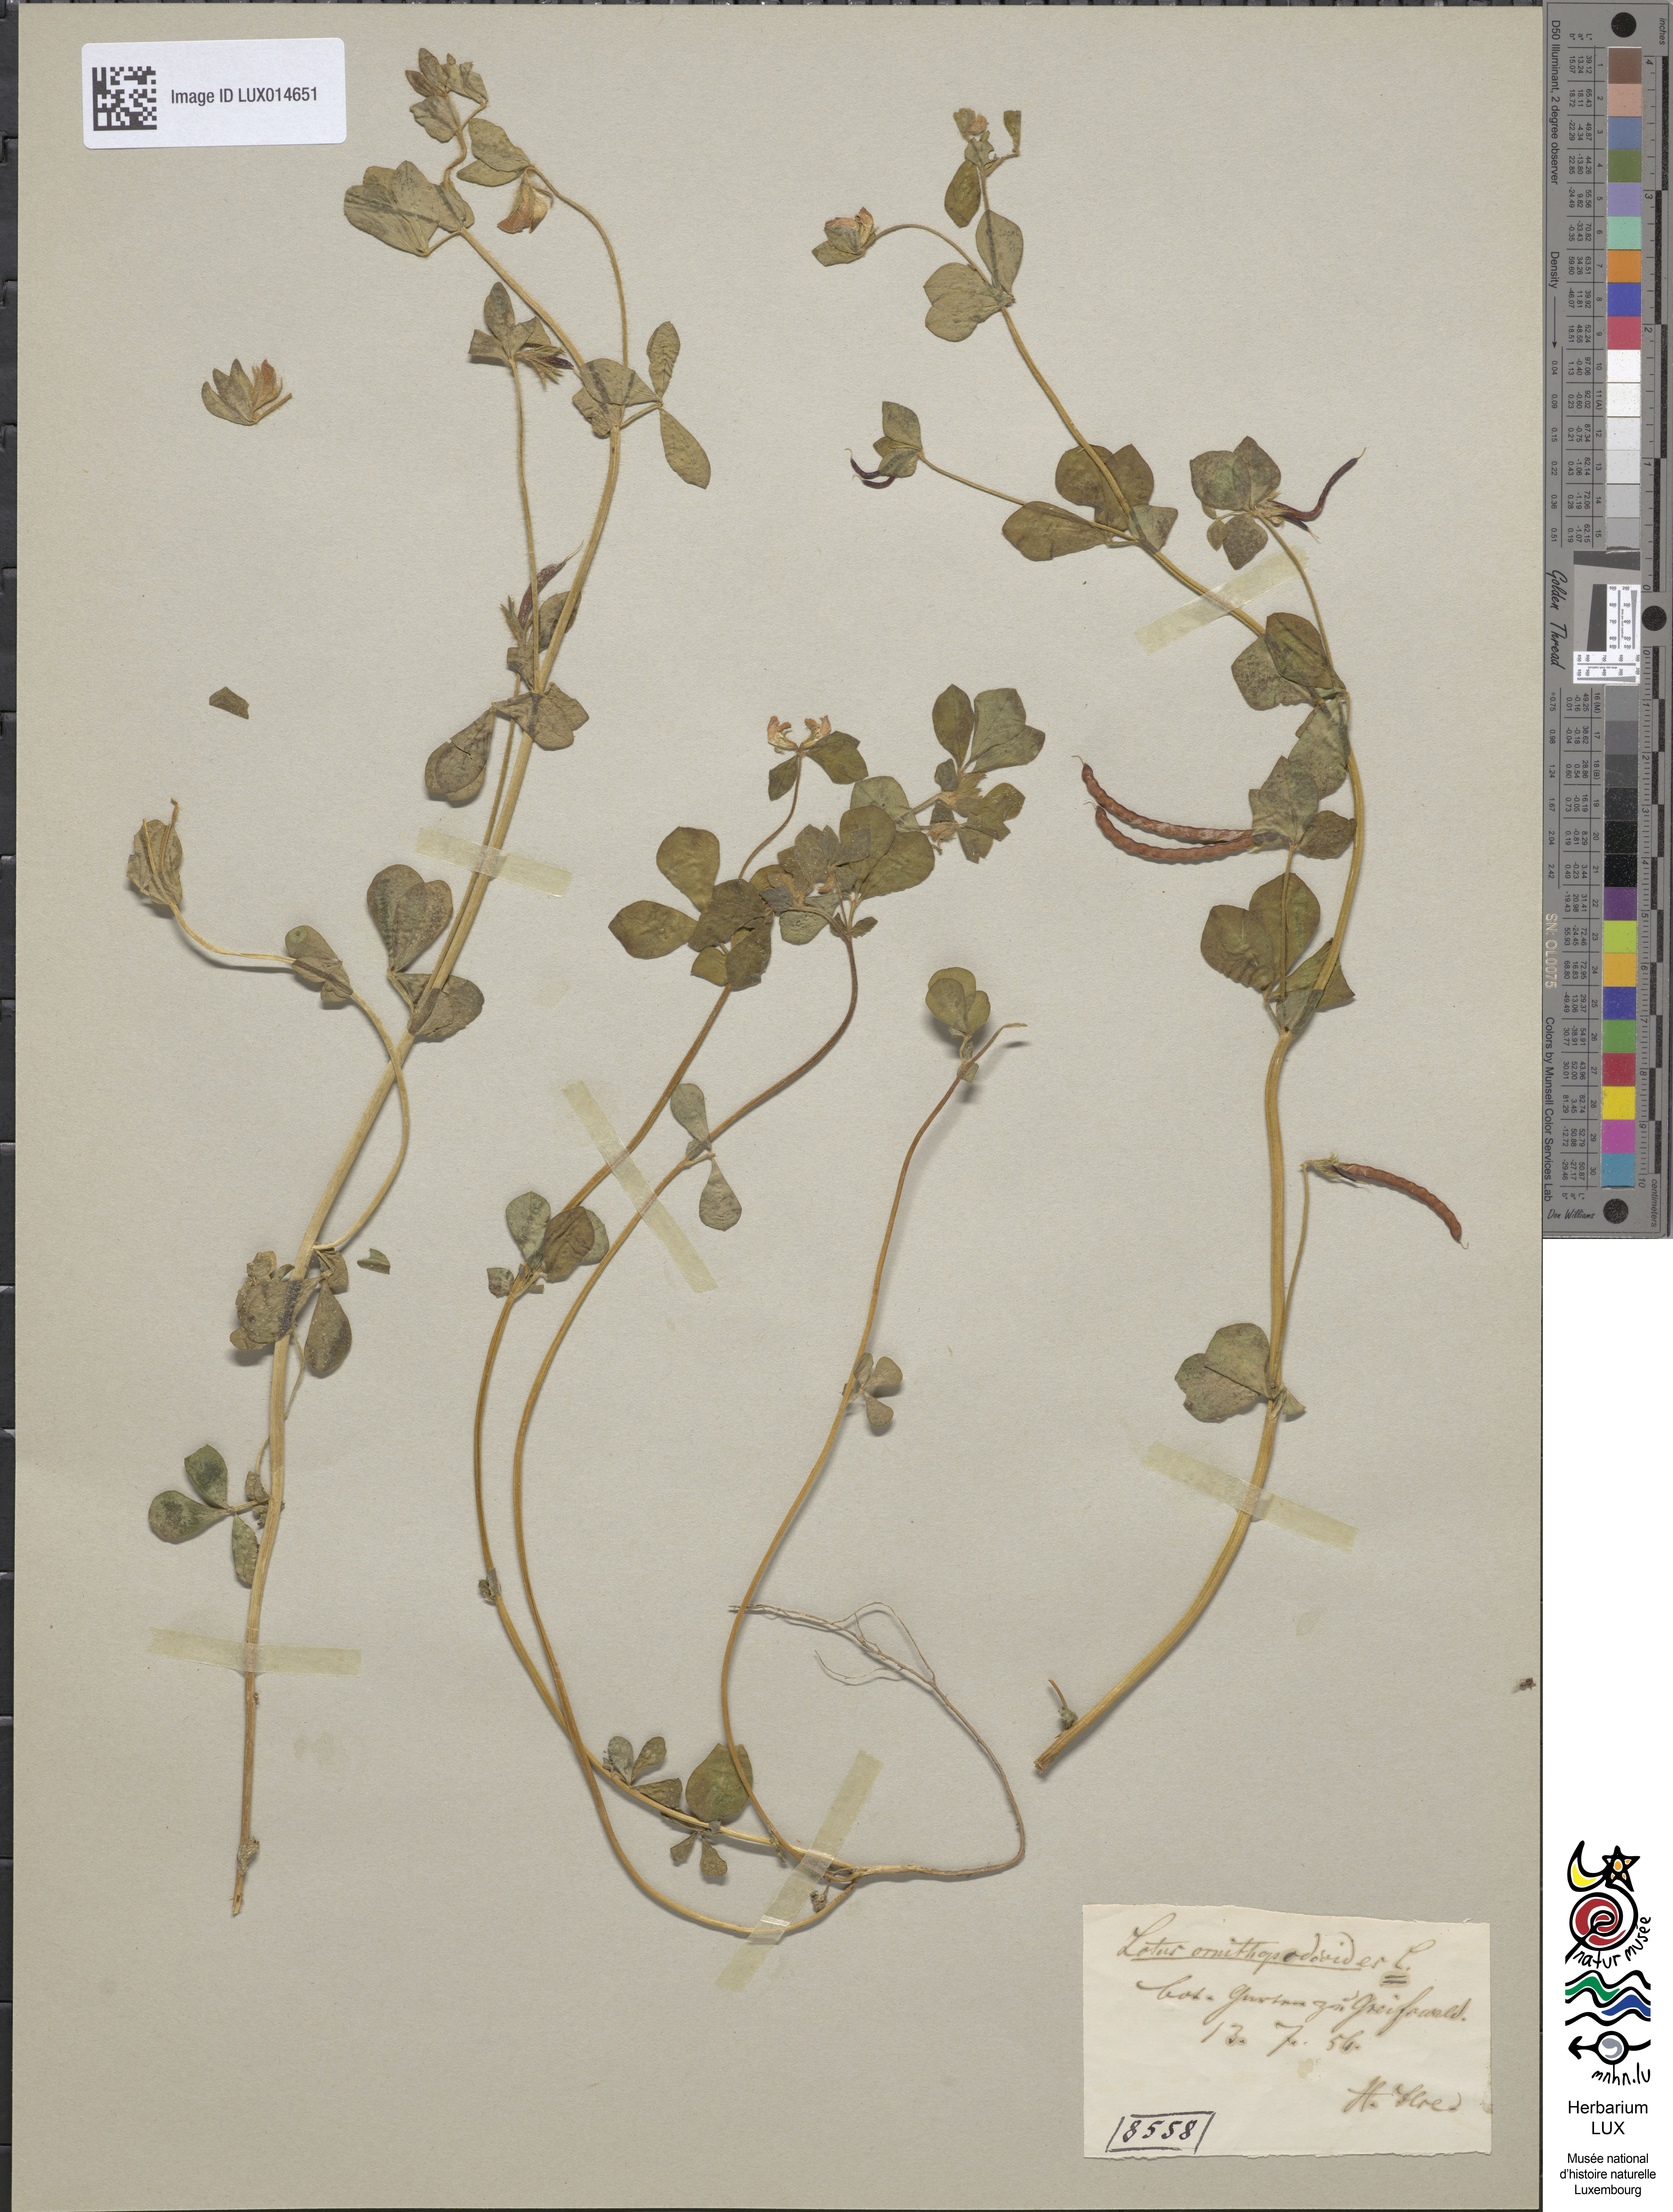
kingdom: Plantae
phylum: Tracheophyta
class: Magnoliopsida
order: Fabales
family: Fabaceae
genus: Lotus
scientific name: Lotus ornithopodioides
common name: Southern bird's-foot trefoil
